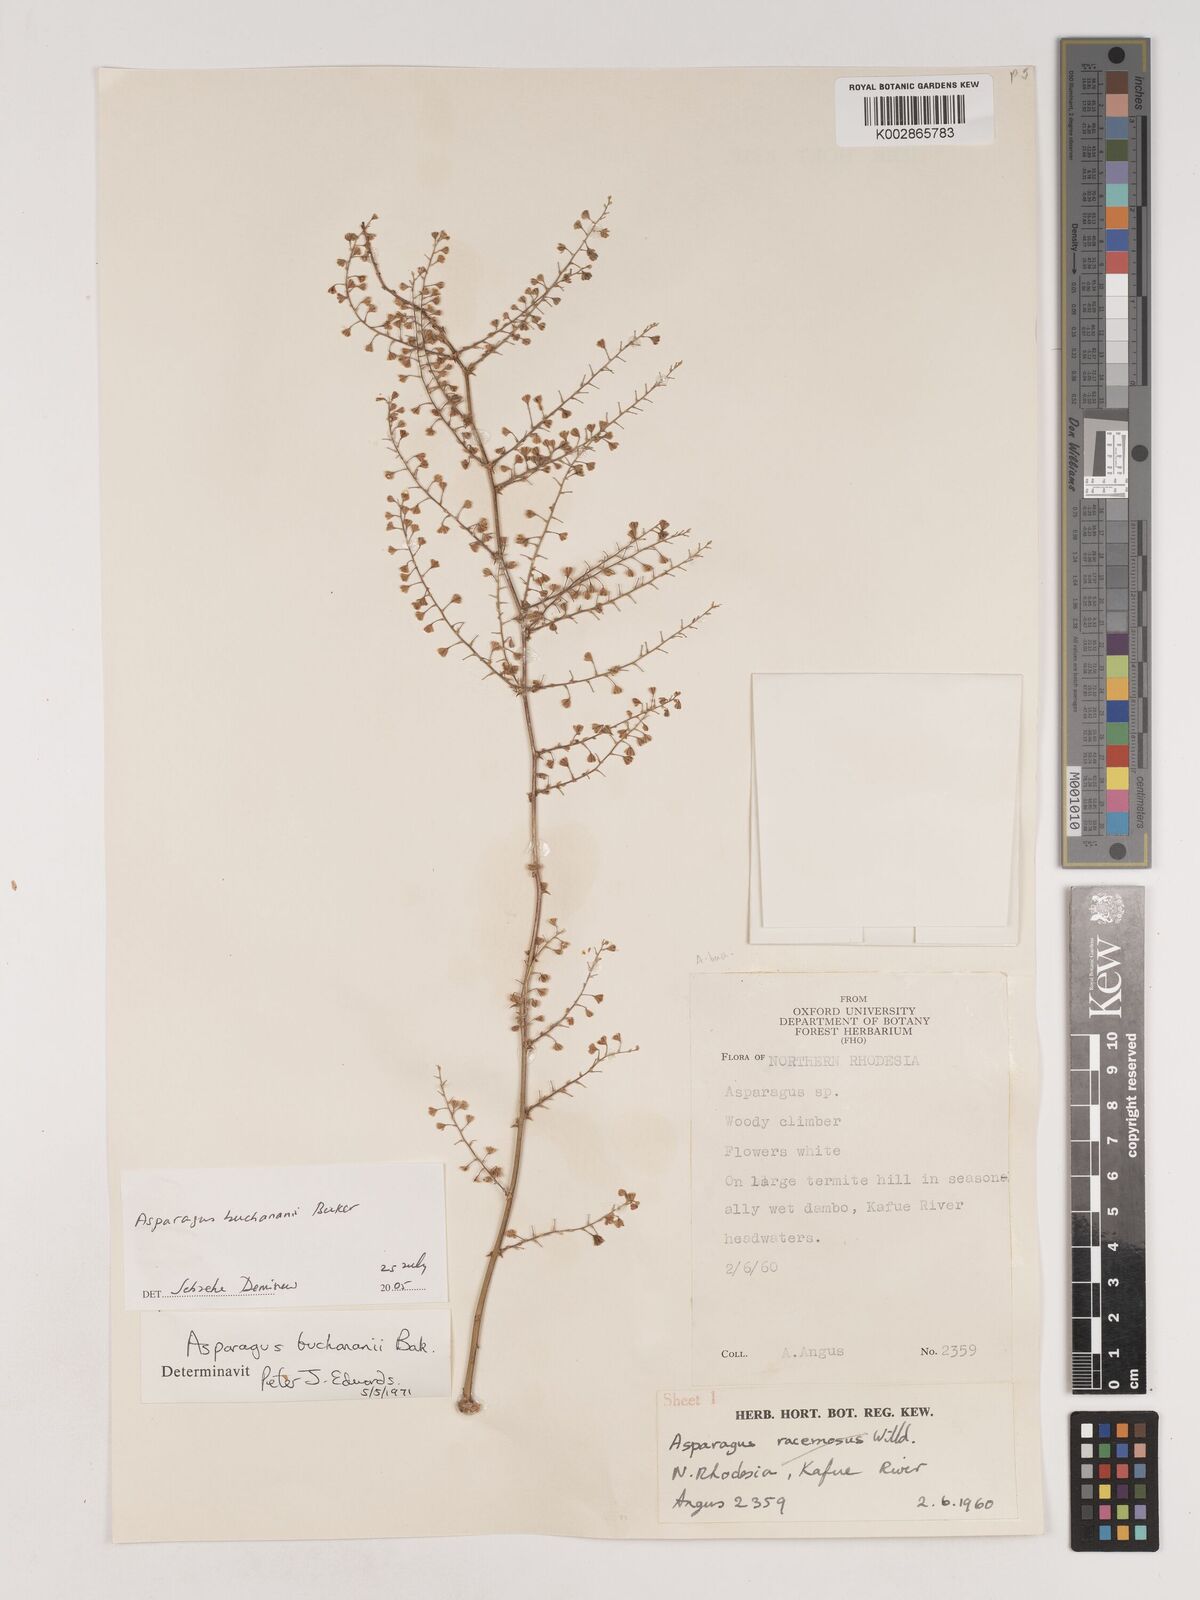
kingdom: Plantae
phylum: Tracheophyta
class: Liliopsida
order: Asparagales
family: Asparagaceae
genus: Asparagus
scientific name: Asparagus buchananii
